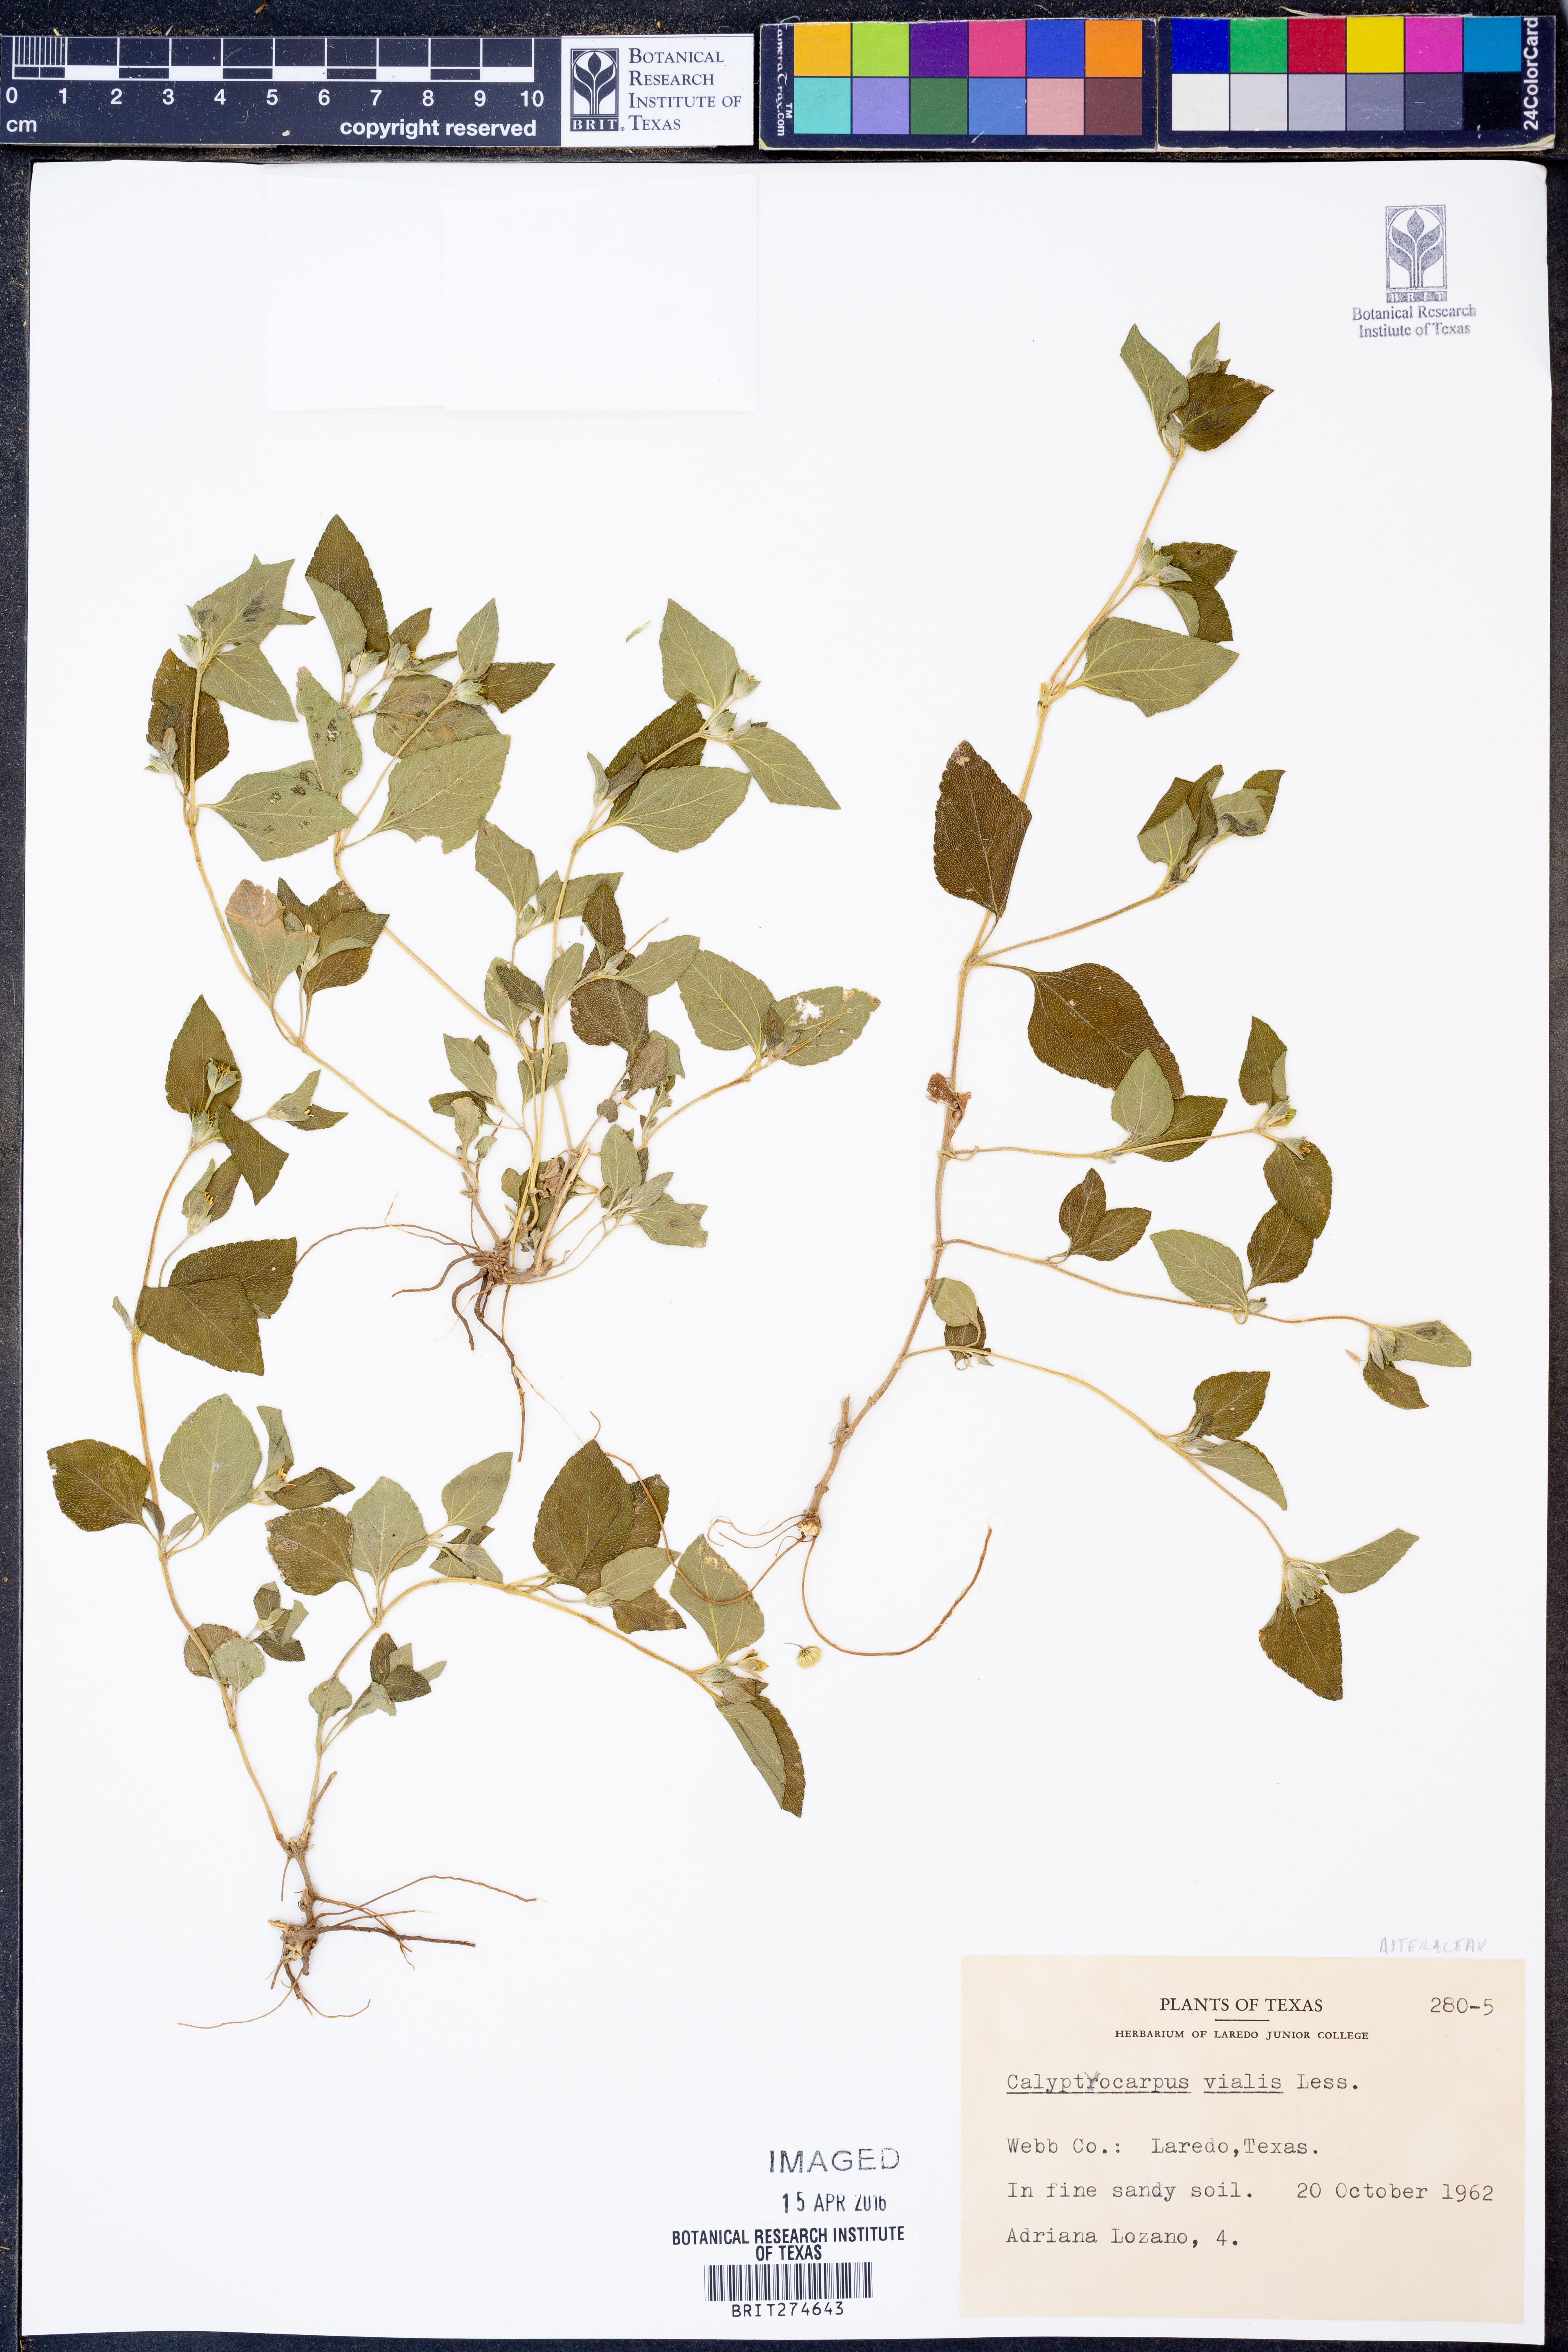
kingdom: Plantae
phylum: Tracheophyta
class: Magnoliopsida
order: Asterales
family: Asteraceae
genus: Calyptocarpus
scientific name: Calyptocarpus vialis
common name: Straggler daisy
